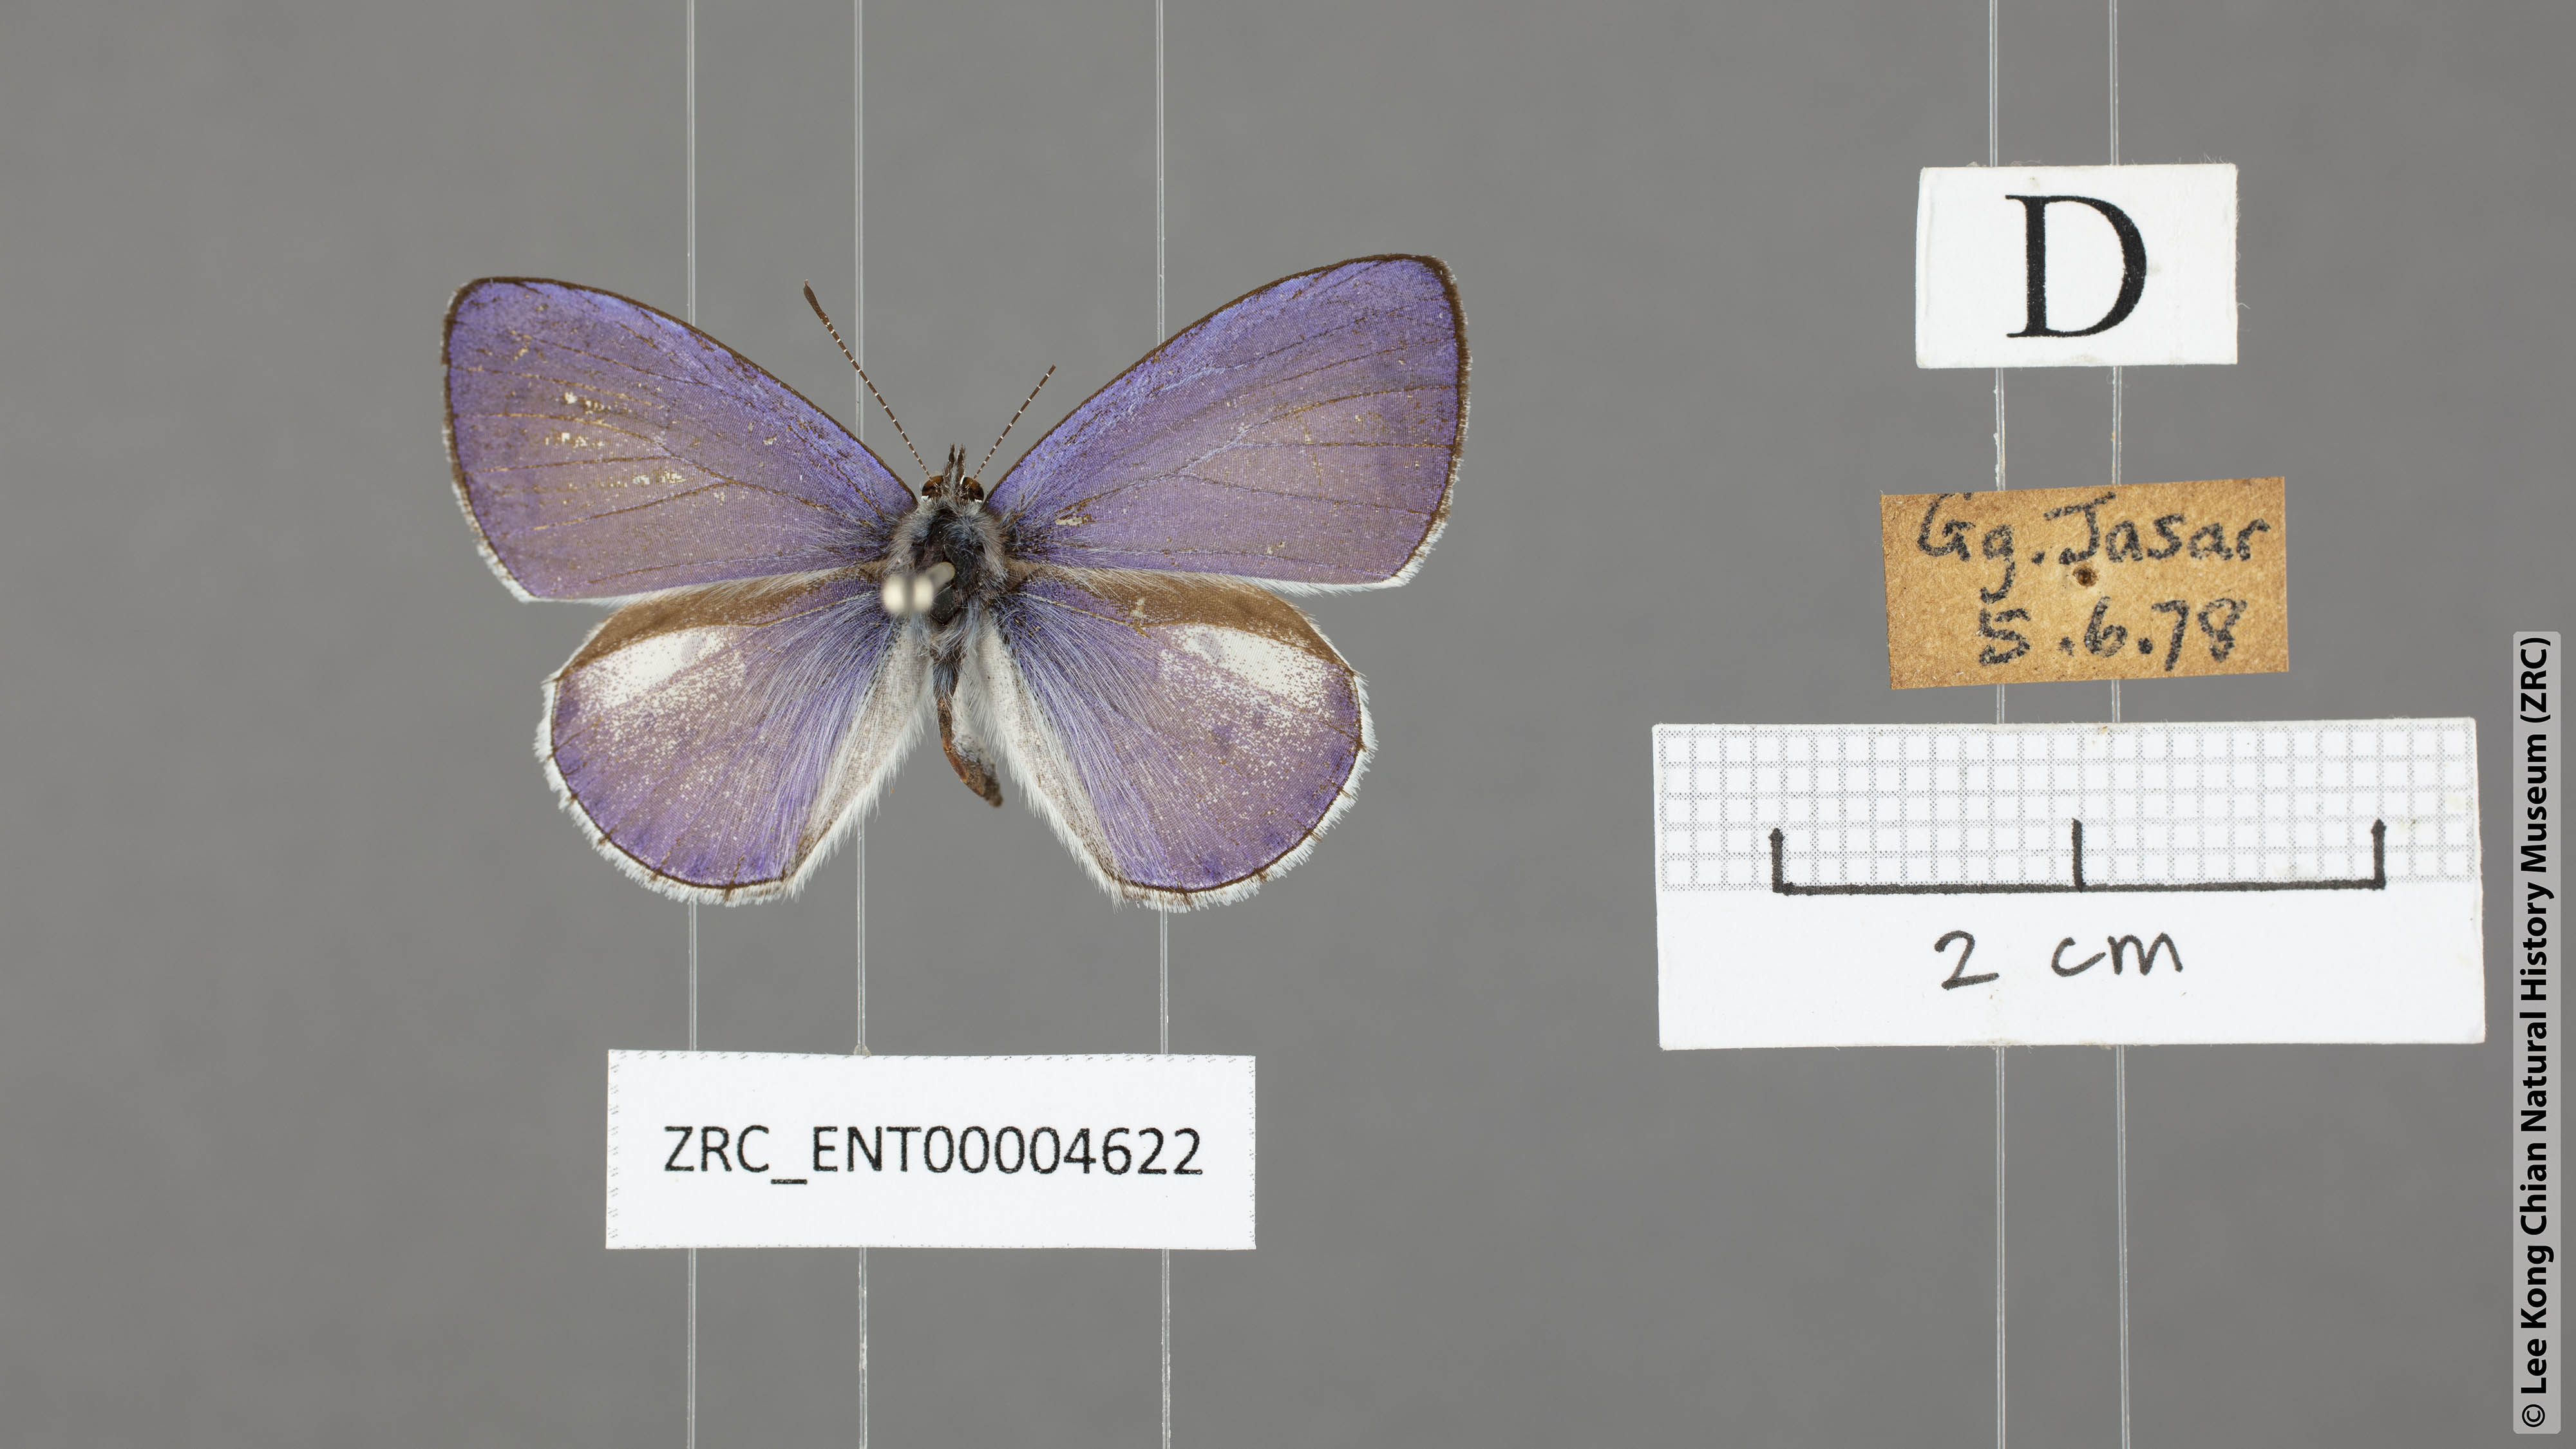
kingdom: Animalia
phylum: Arthropoda
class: Insecta
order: Lepidoptera
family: Lycaenidae
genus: Udara
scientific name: Udara
